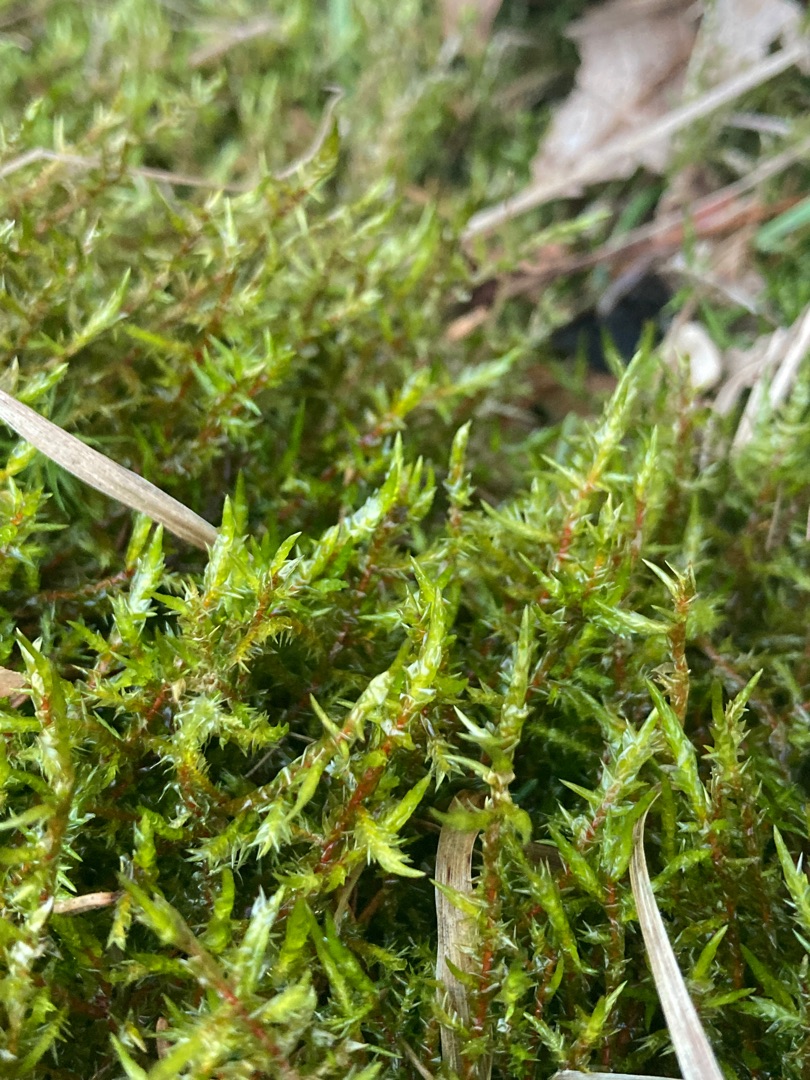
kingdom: Plantae
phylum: Bryophyta
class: Bryopsida
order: Hypnales
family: Pylaisiaceae
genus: Calliergonella
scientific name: Calliergonella cuspidata
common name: Spids spydmos
